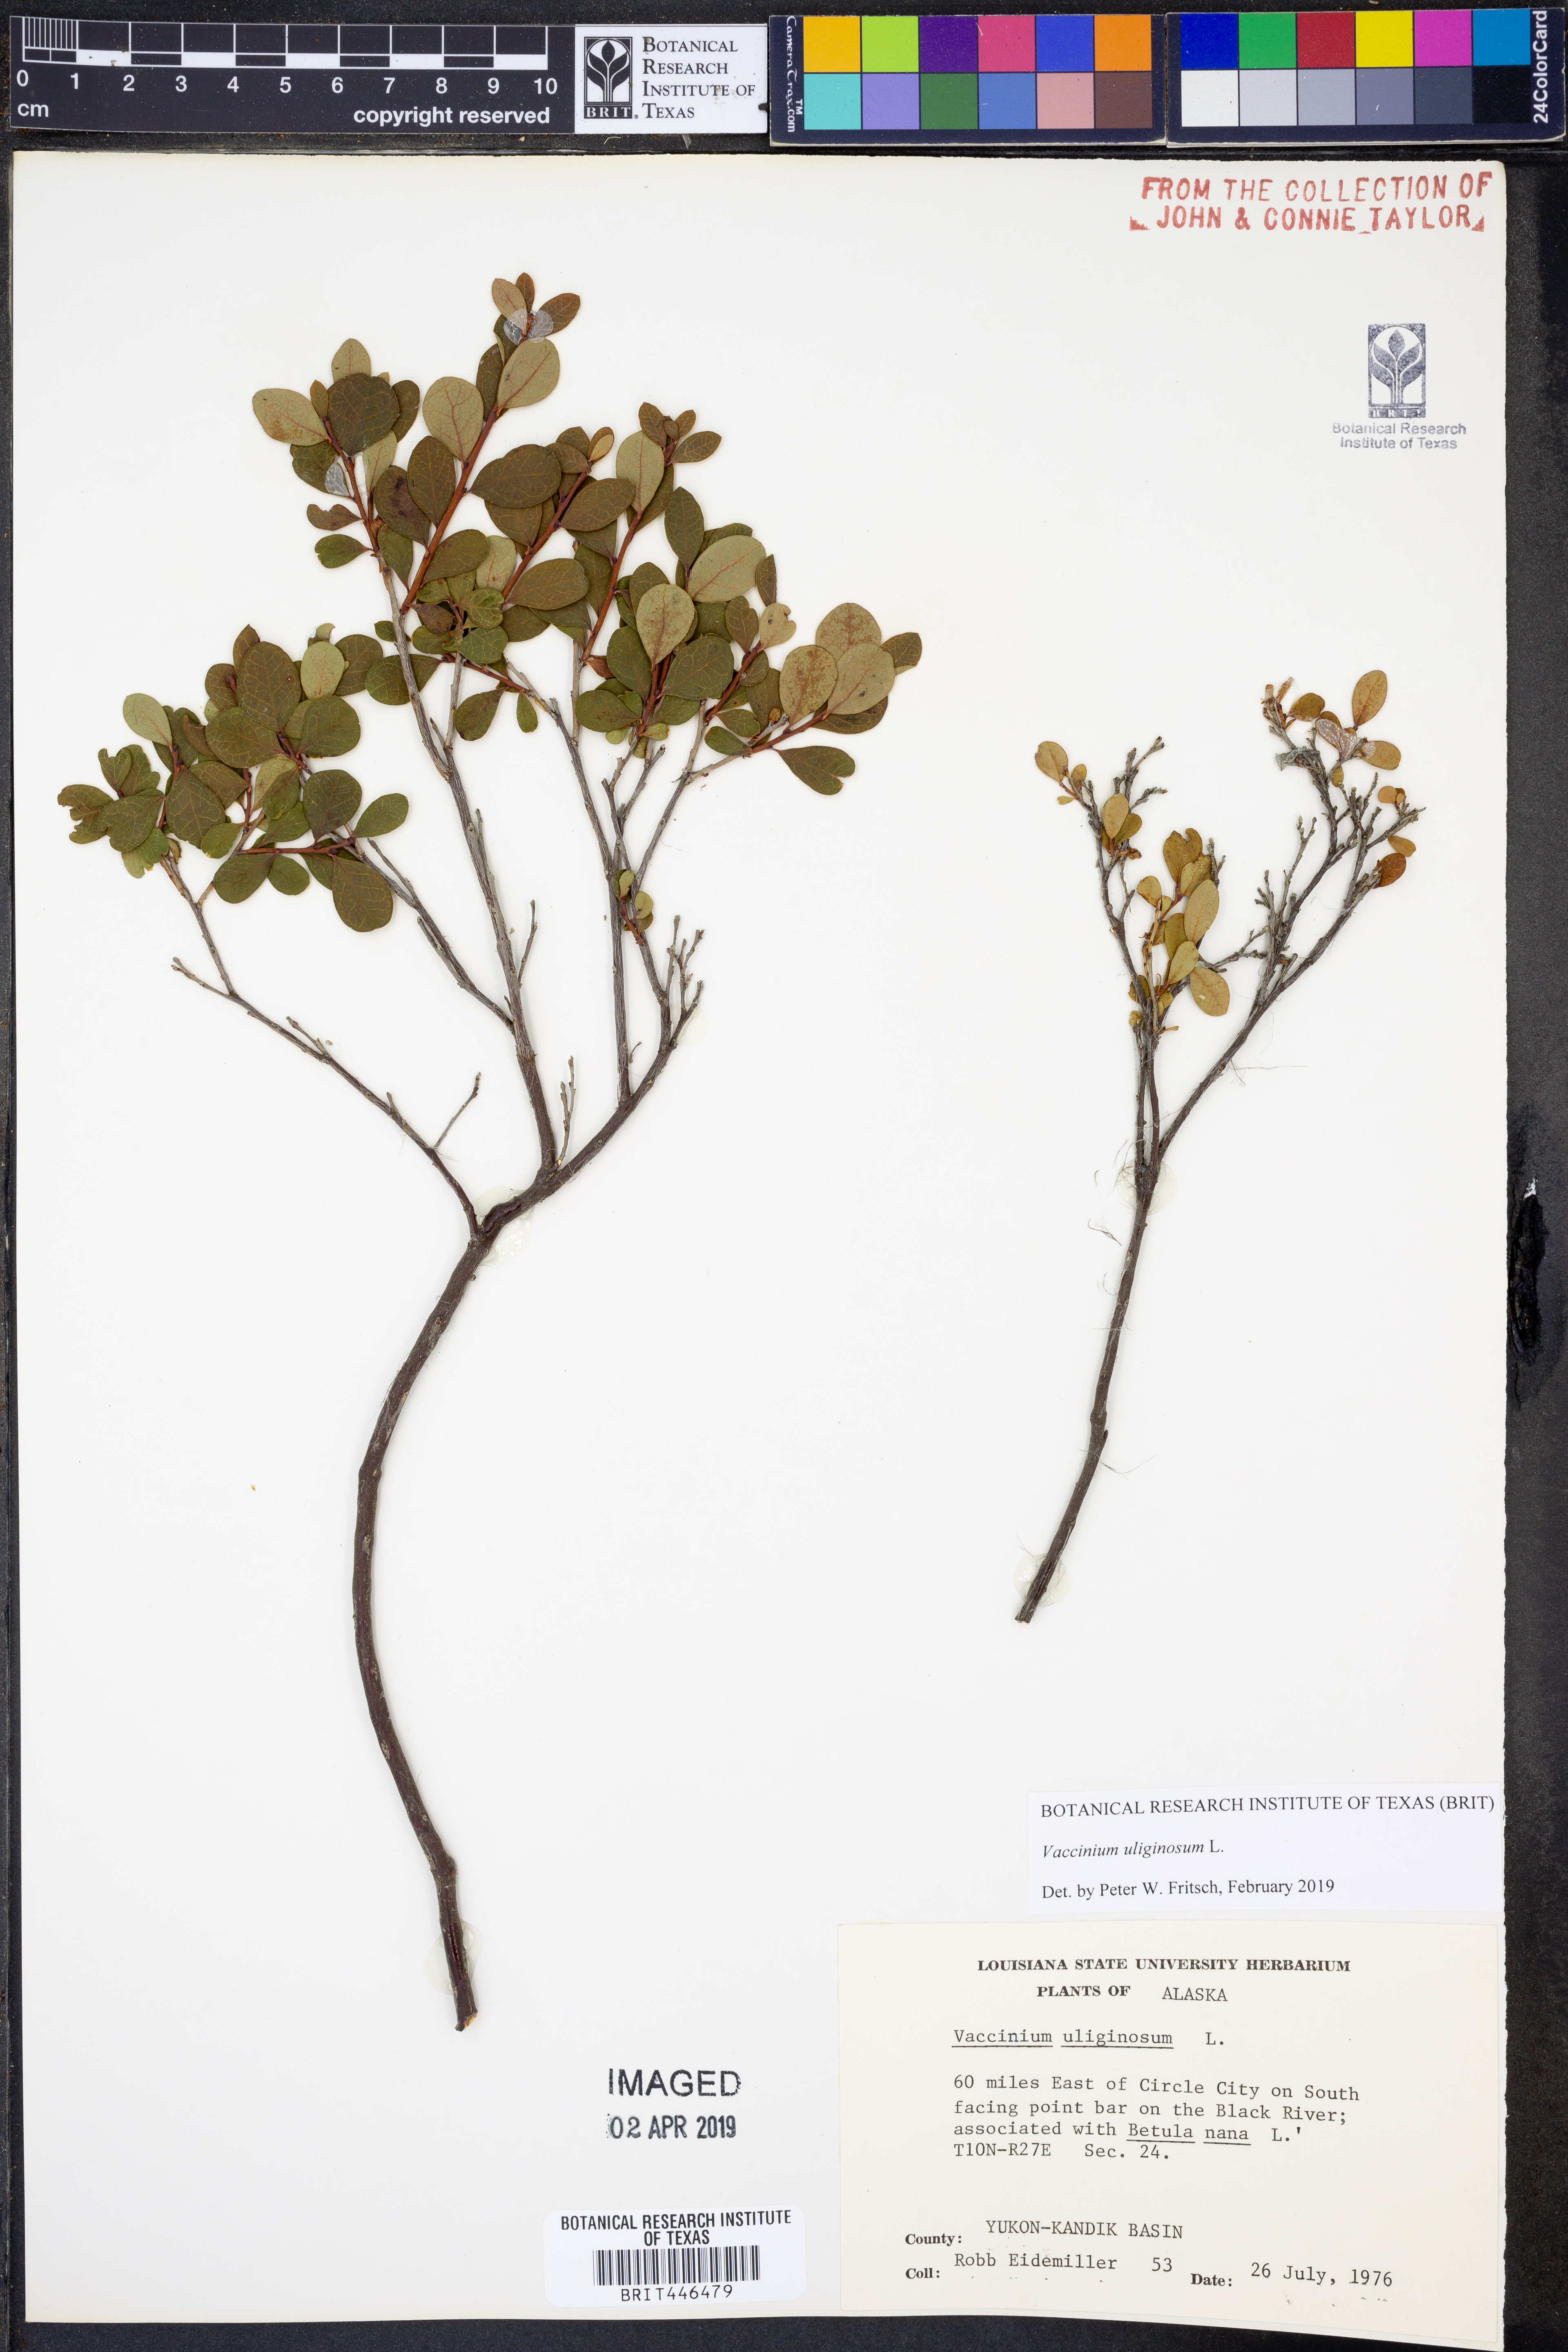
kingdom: Plantae
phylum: Tracheophyta
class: Magnoliopsida
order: Ericales
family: Ericaceae
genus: Vaccinium
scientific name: Vaccinium uliginosum
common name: Bog bilberry
